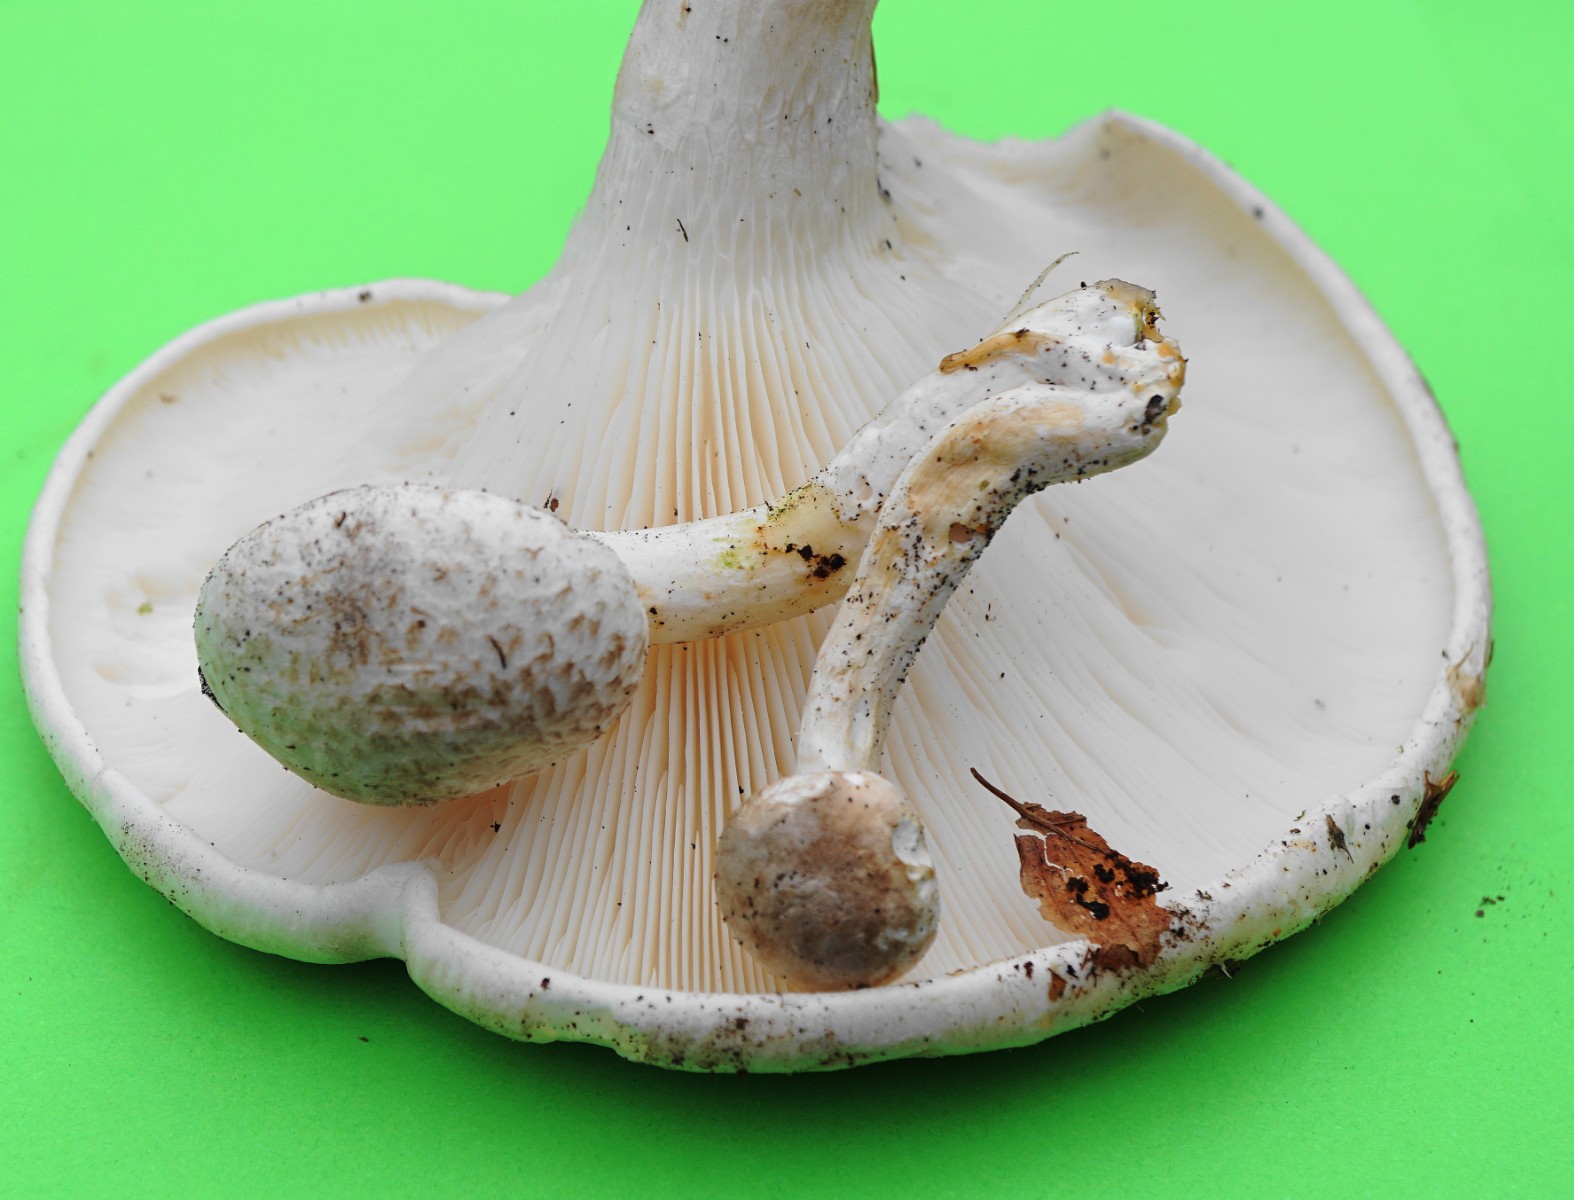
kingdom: Fungi
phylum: Basidiomycota
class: Agaricomycetes
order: Agaricales
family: Pleurotaceae
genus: Pleurotus
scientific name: Pleurotus dryinus
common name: korkagtig østershat
